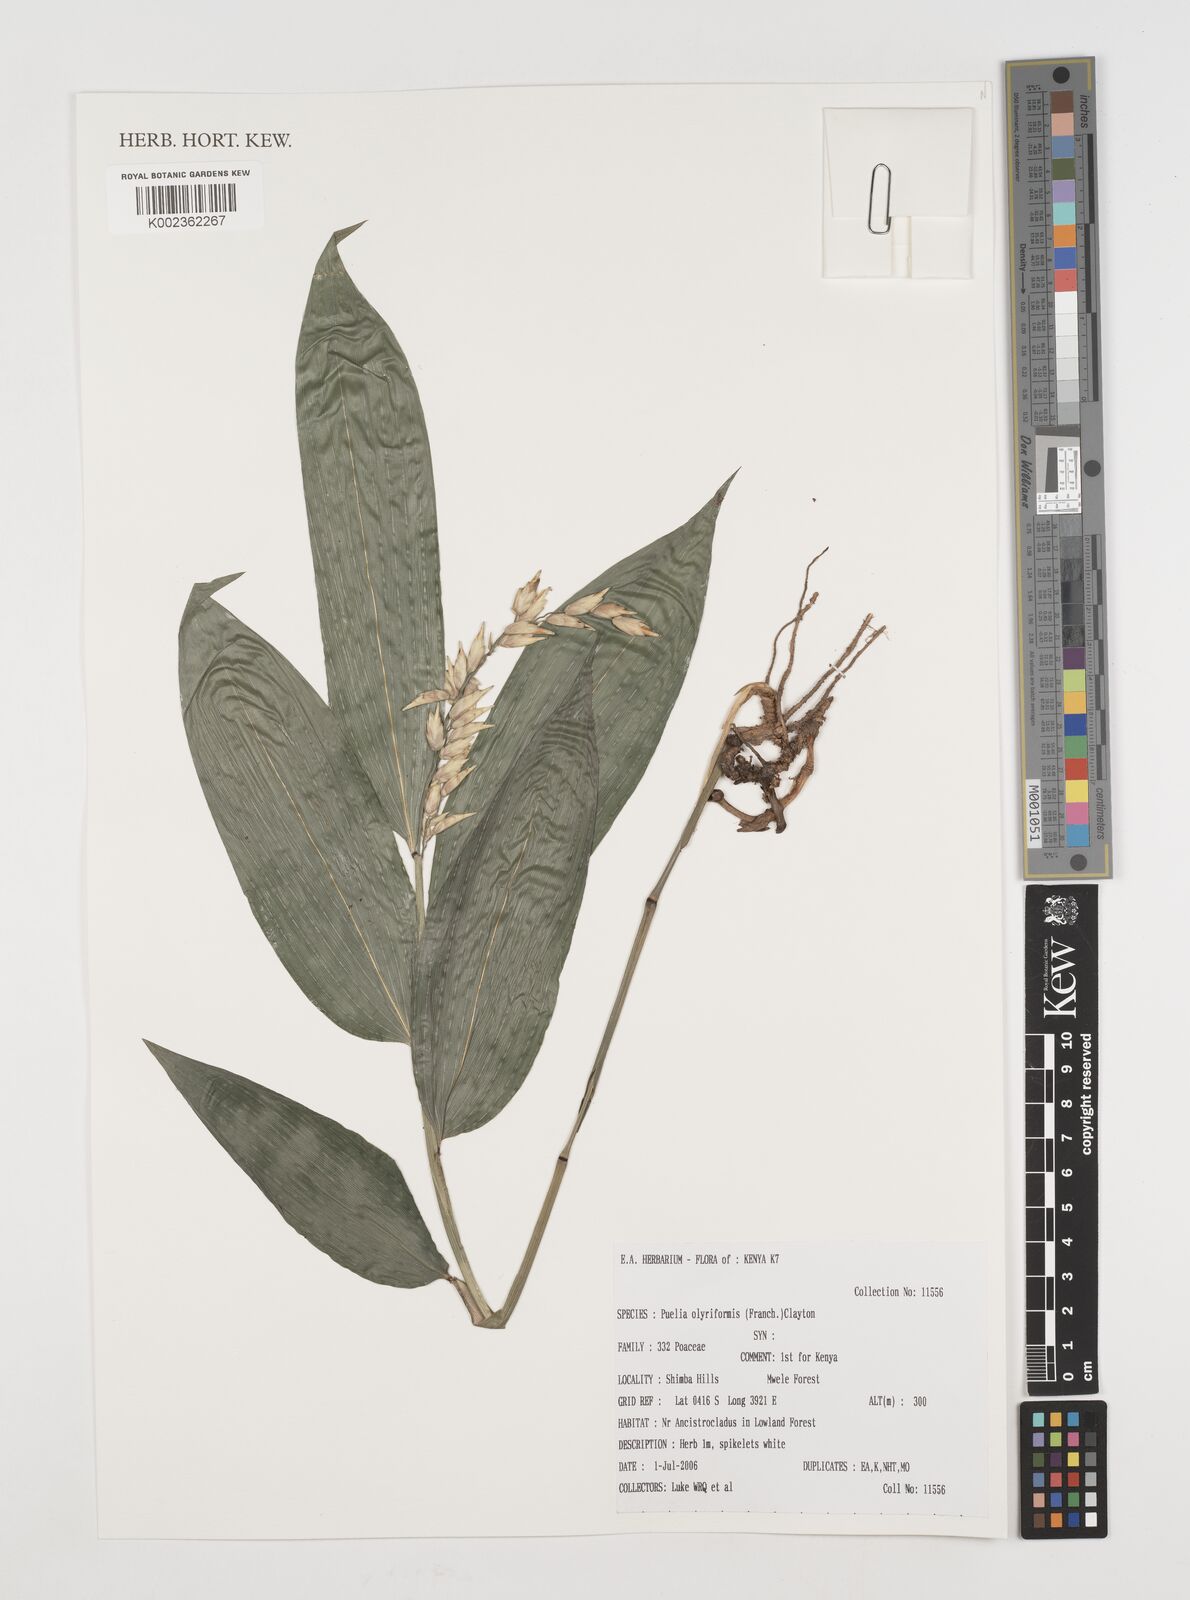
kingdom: Plantae
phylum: Tracheophyta
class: Liliopsida
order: Poales
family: Poaceae
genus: Puelia
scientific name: Puelia olyriformis
